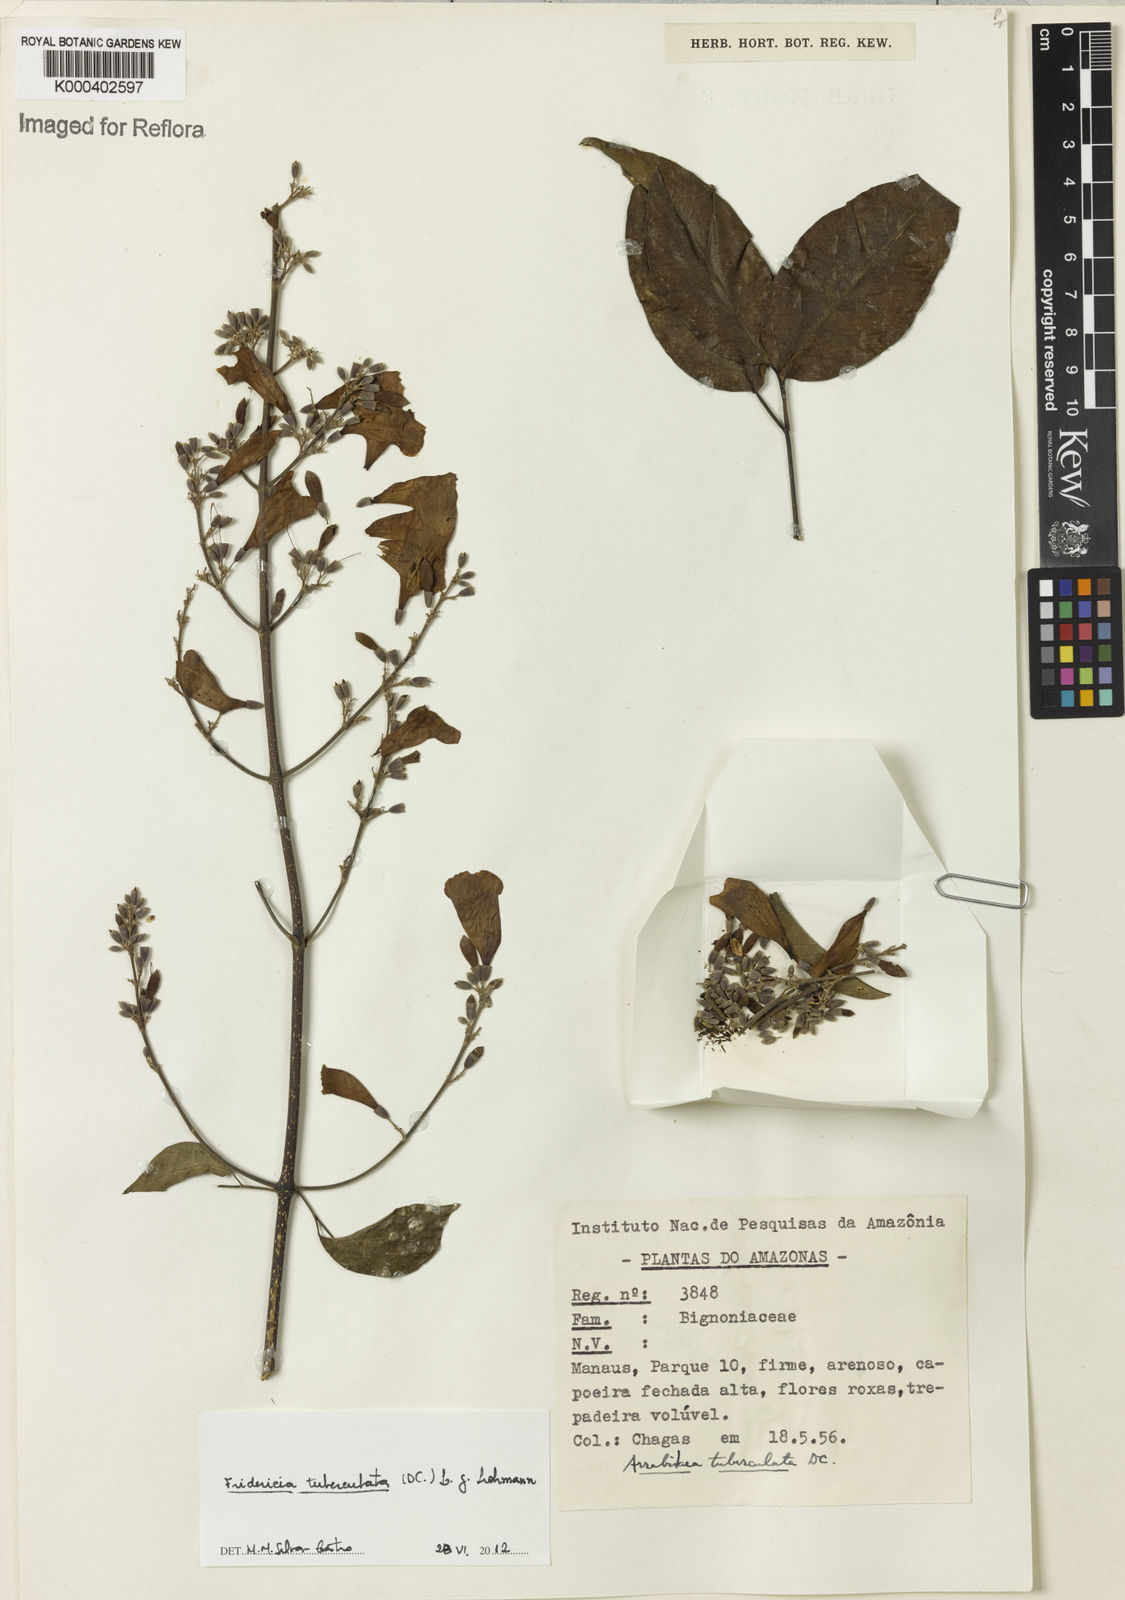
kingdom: Plantae
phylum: Tracheophyta
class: Magnoliopsida
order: Lamiales
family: Bignoniaceae
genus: Fridericia
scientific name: Fridericia tuberculata
